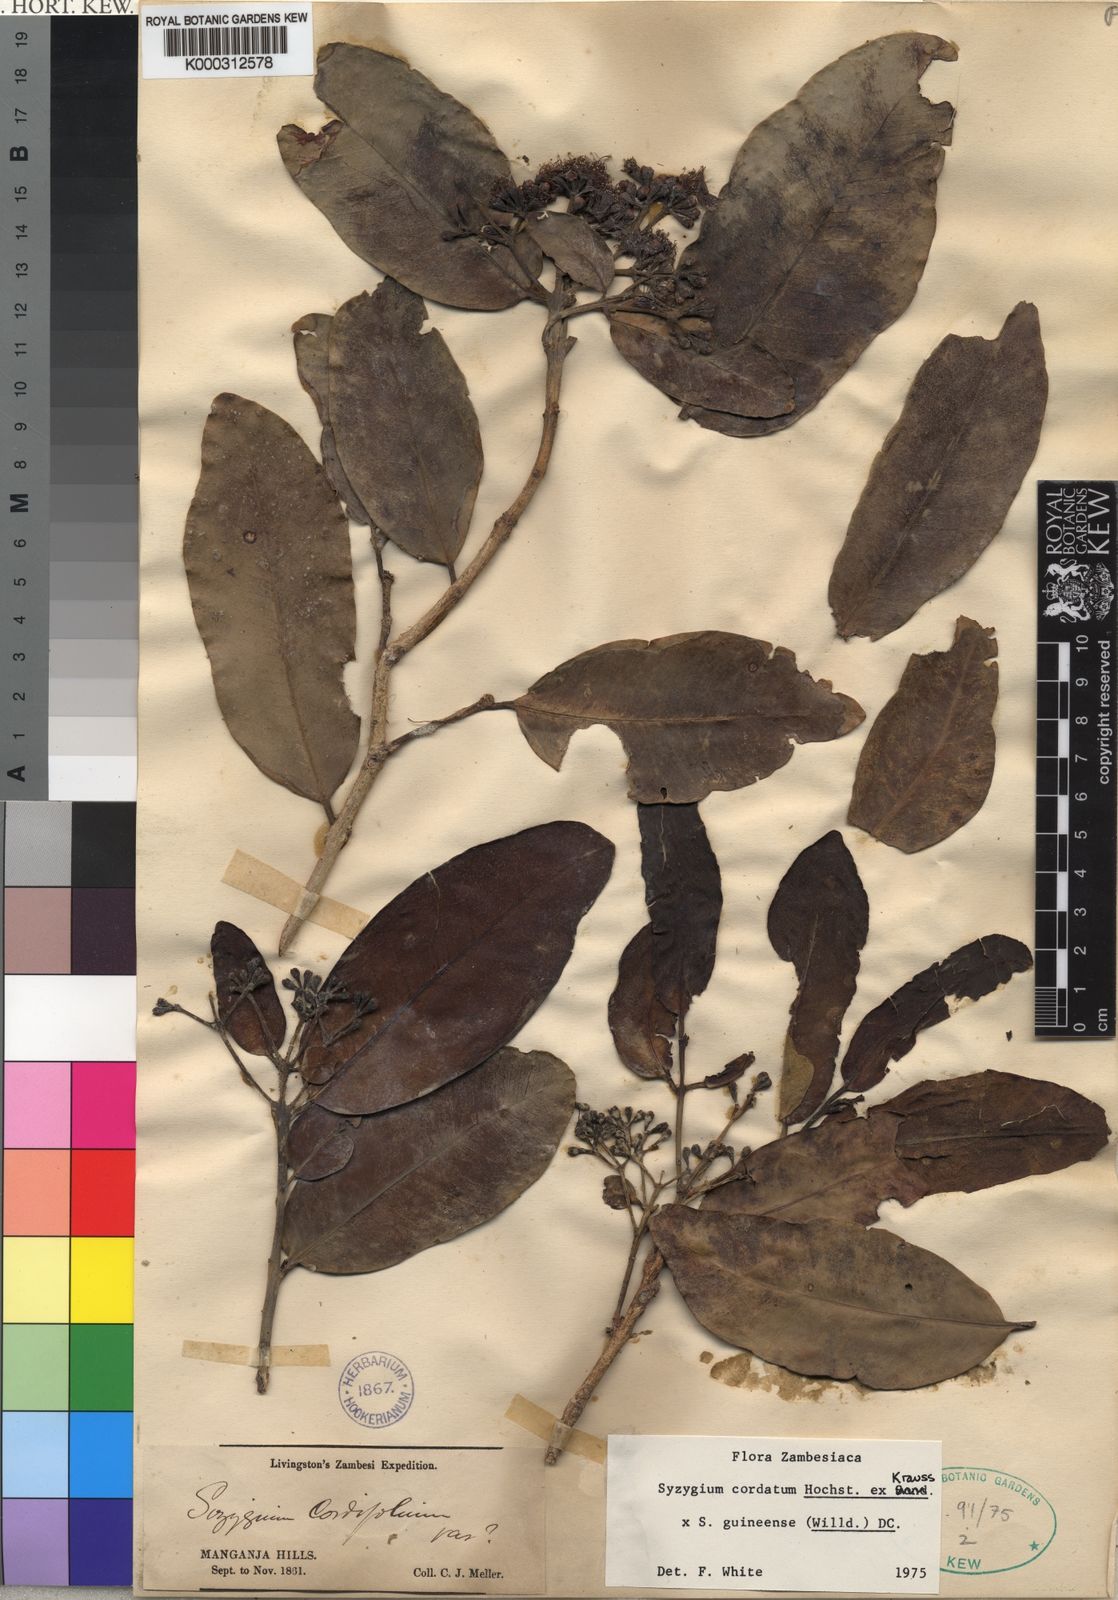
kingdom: Plantae
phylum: Tracheophyta
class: Magnoliopsida
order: Myrtales
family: Myrtaceae
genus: Syzygium
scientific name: Syzygium cordatum
